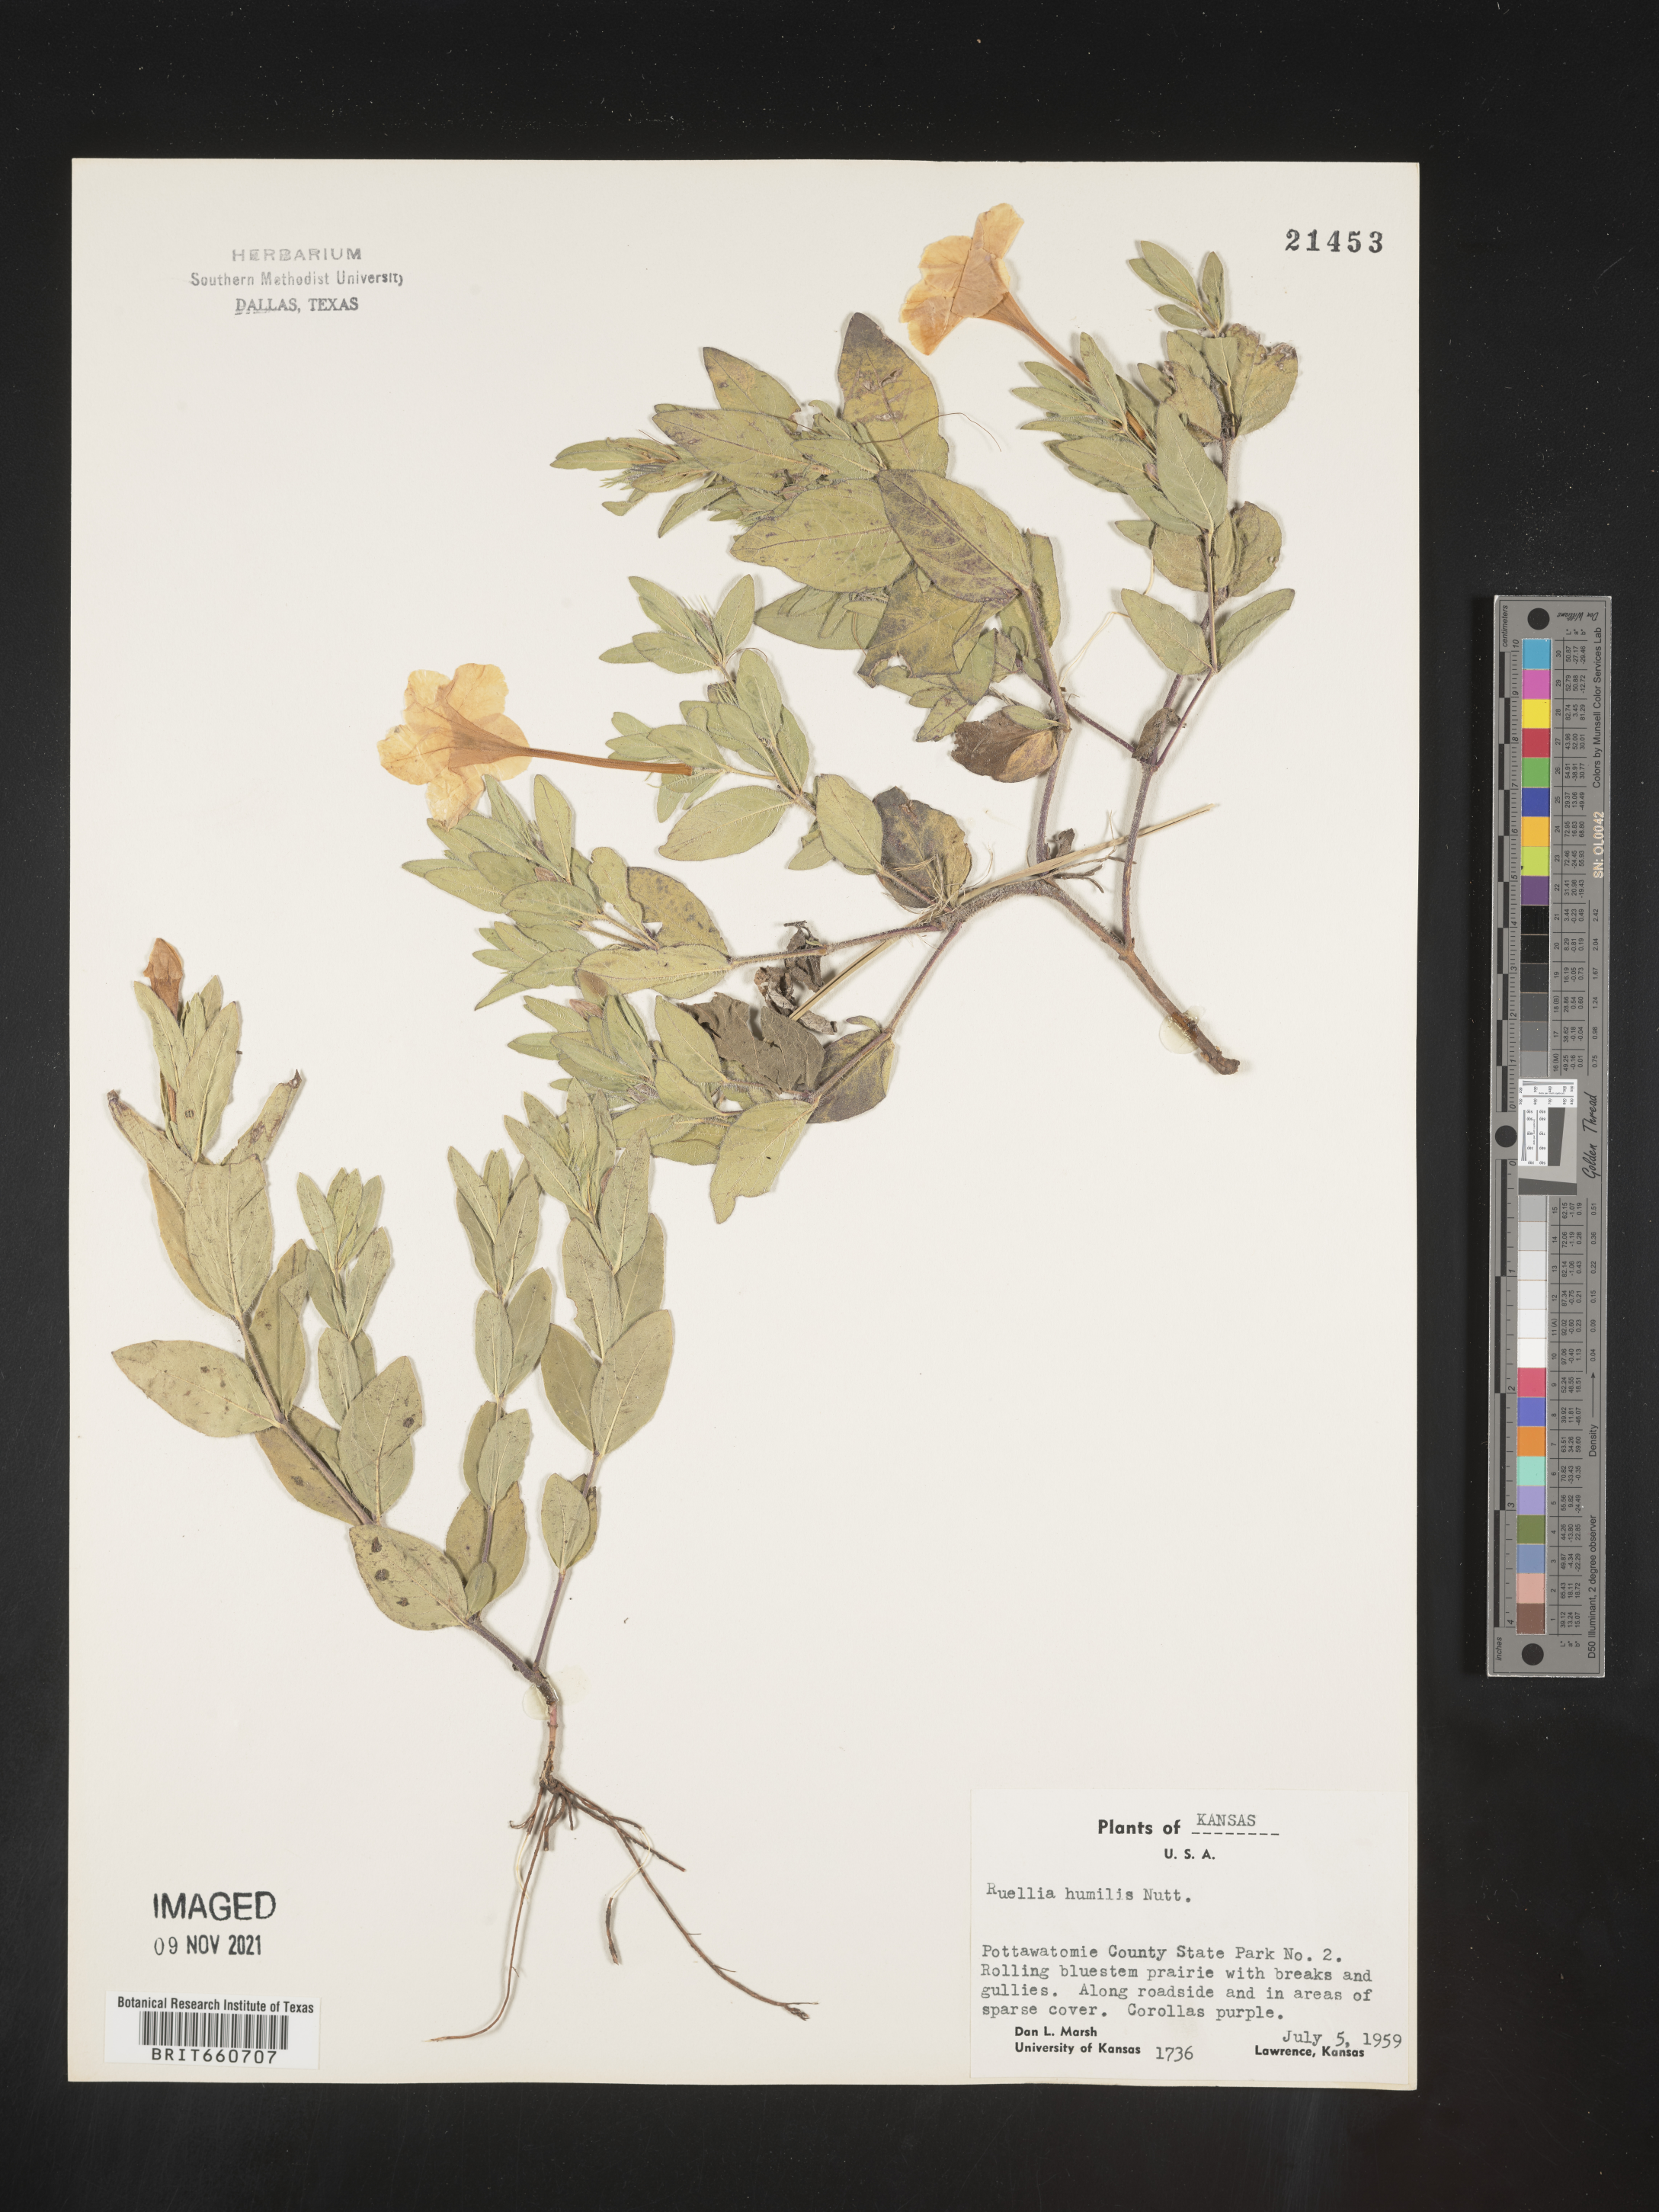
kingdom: Plantae
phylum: Tracheophyta
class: Magnoliopsida
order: Lamiales
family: Acanthaceae
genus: Ruellia
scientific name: Ruellia humilis
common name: Fringe-leaf ruellia
